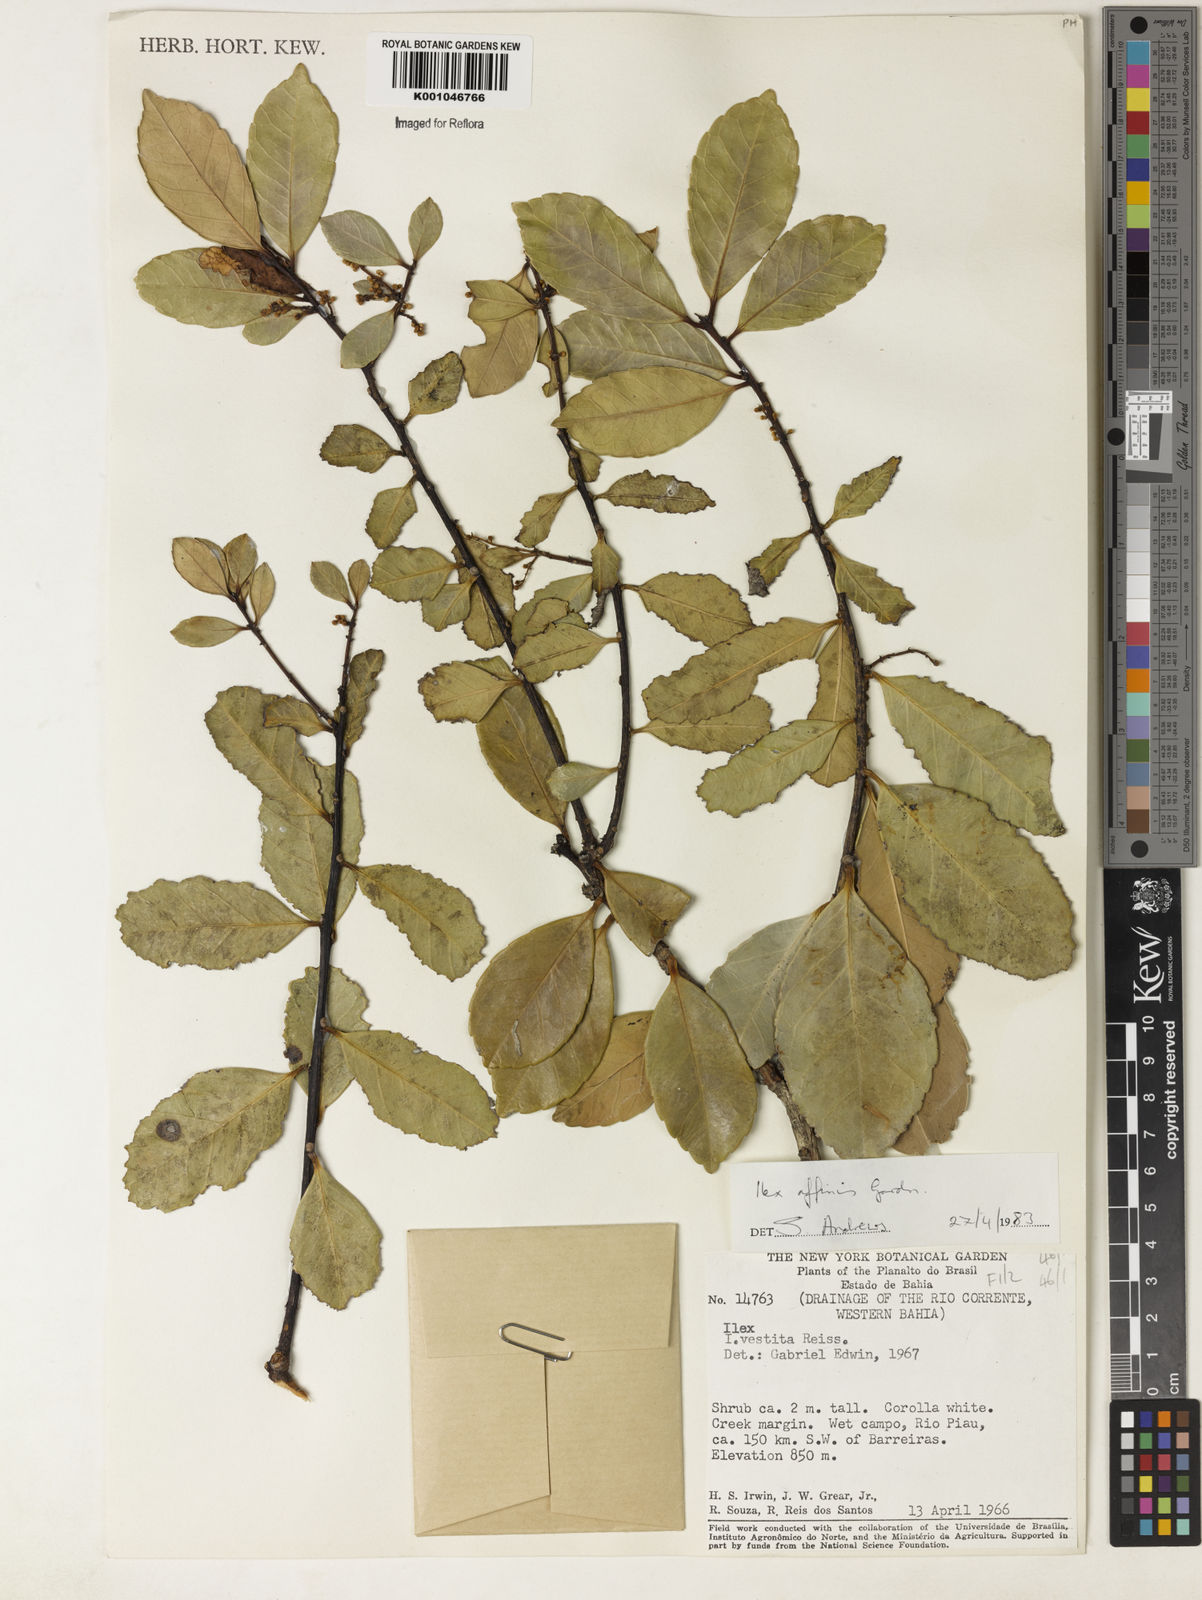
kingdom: Plantae
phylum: Tracheophyta
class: Magnoliopsida
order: Aquifoliales
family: Aquifoliaceae
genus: Ilex
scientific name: Ilex affinis
